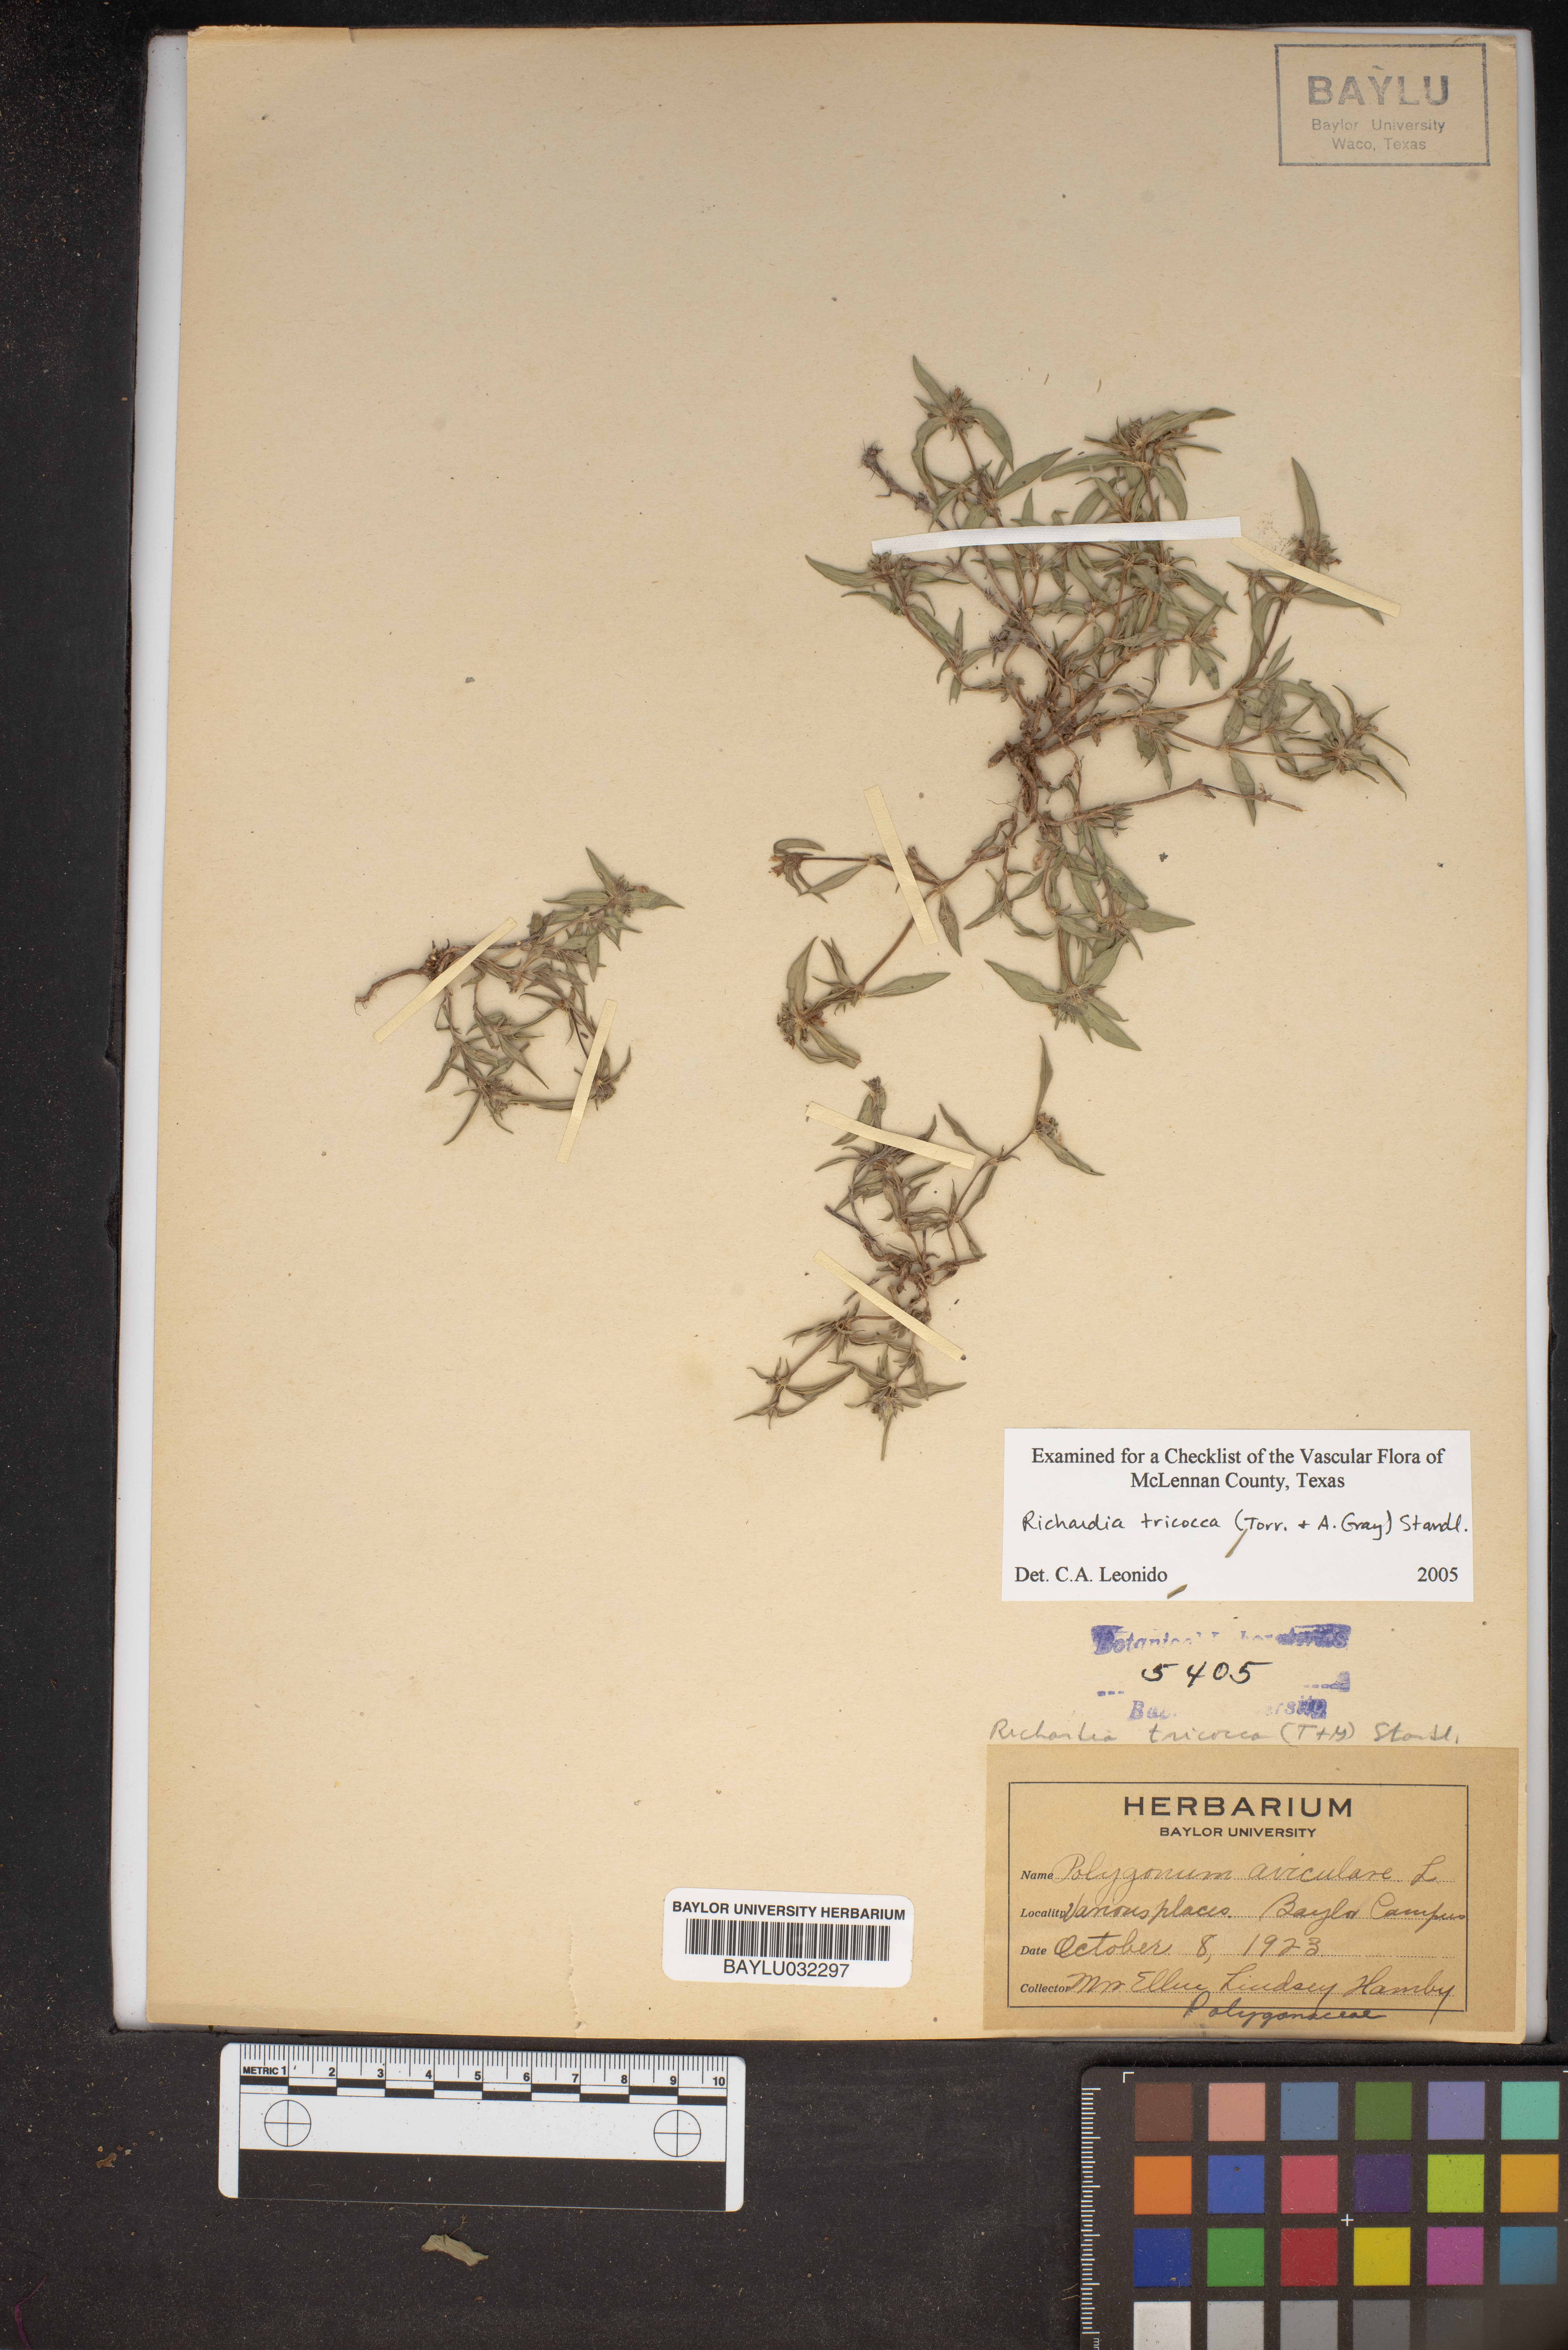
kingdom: Plantae
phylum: Tracheophyta
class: Magnoliopsida
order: Gentianales
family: Rubiaceae
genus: Richardia
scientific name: Richardia tricocca
